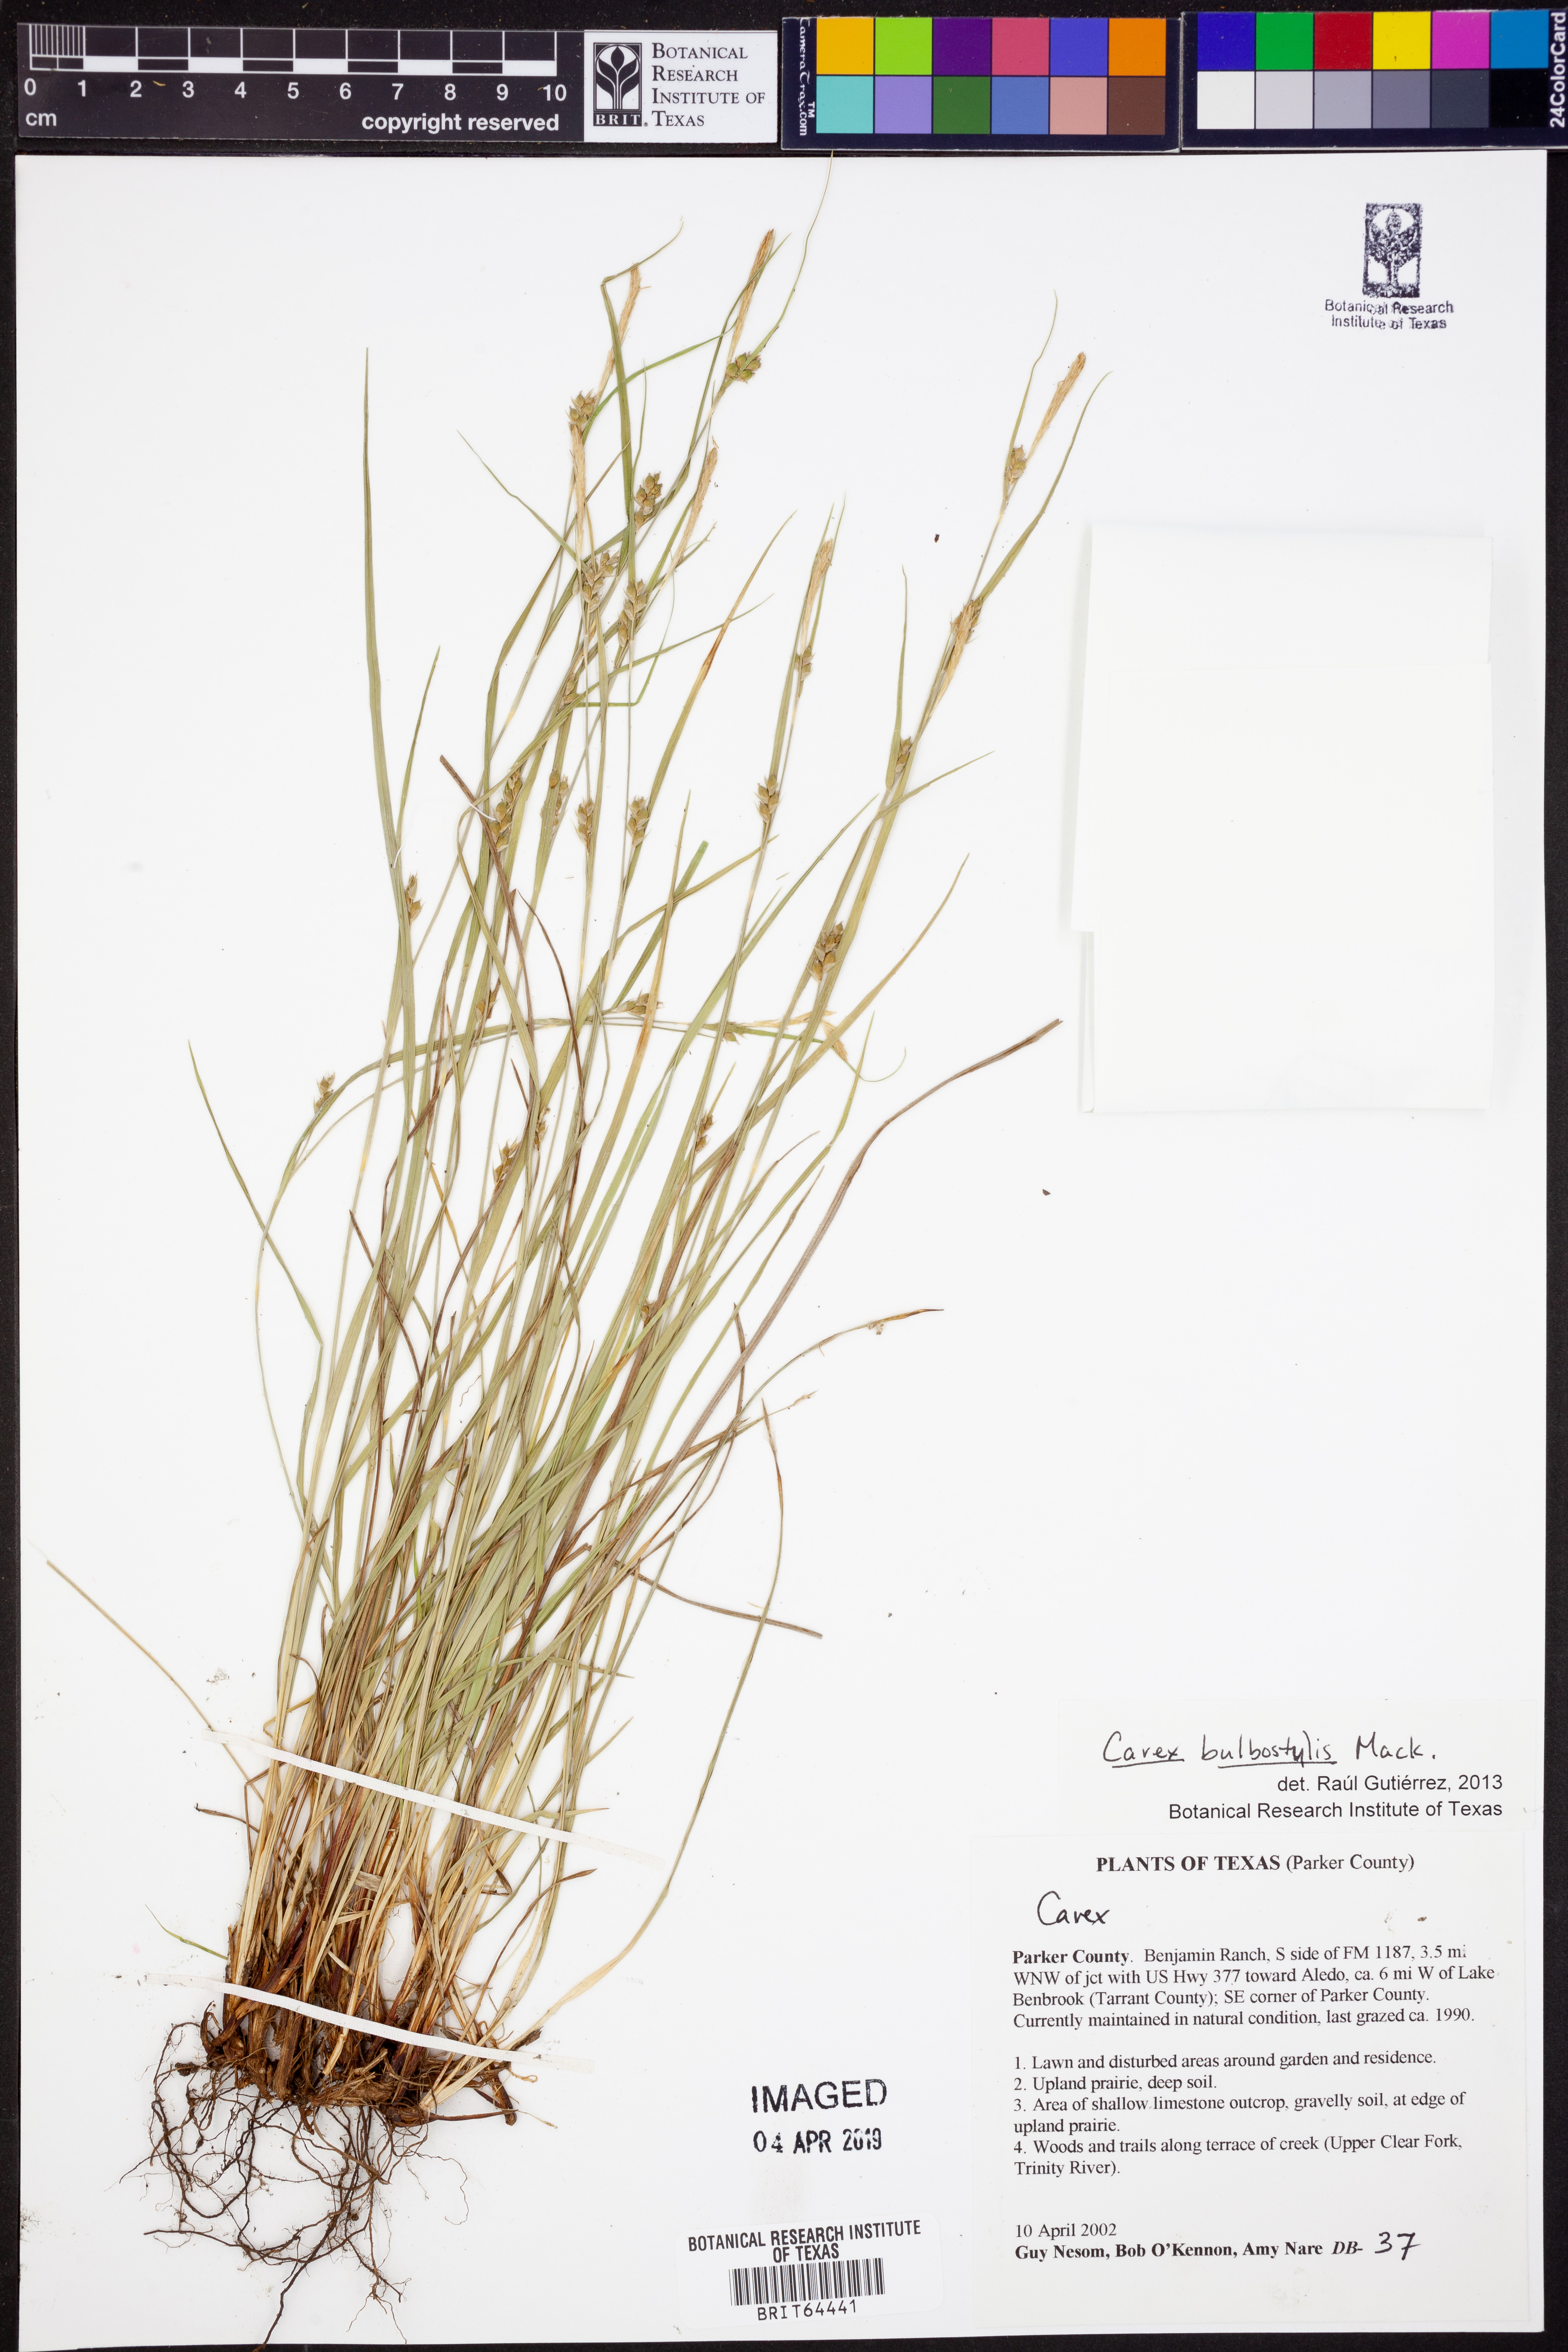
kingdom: Plantae
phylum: Tracheophyta
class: Liliopsida
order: Poales
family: Cyperaceae
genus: Carex
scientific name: Carex bulbostylis
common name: Eastern narrowleaf sedge
